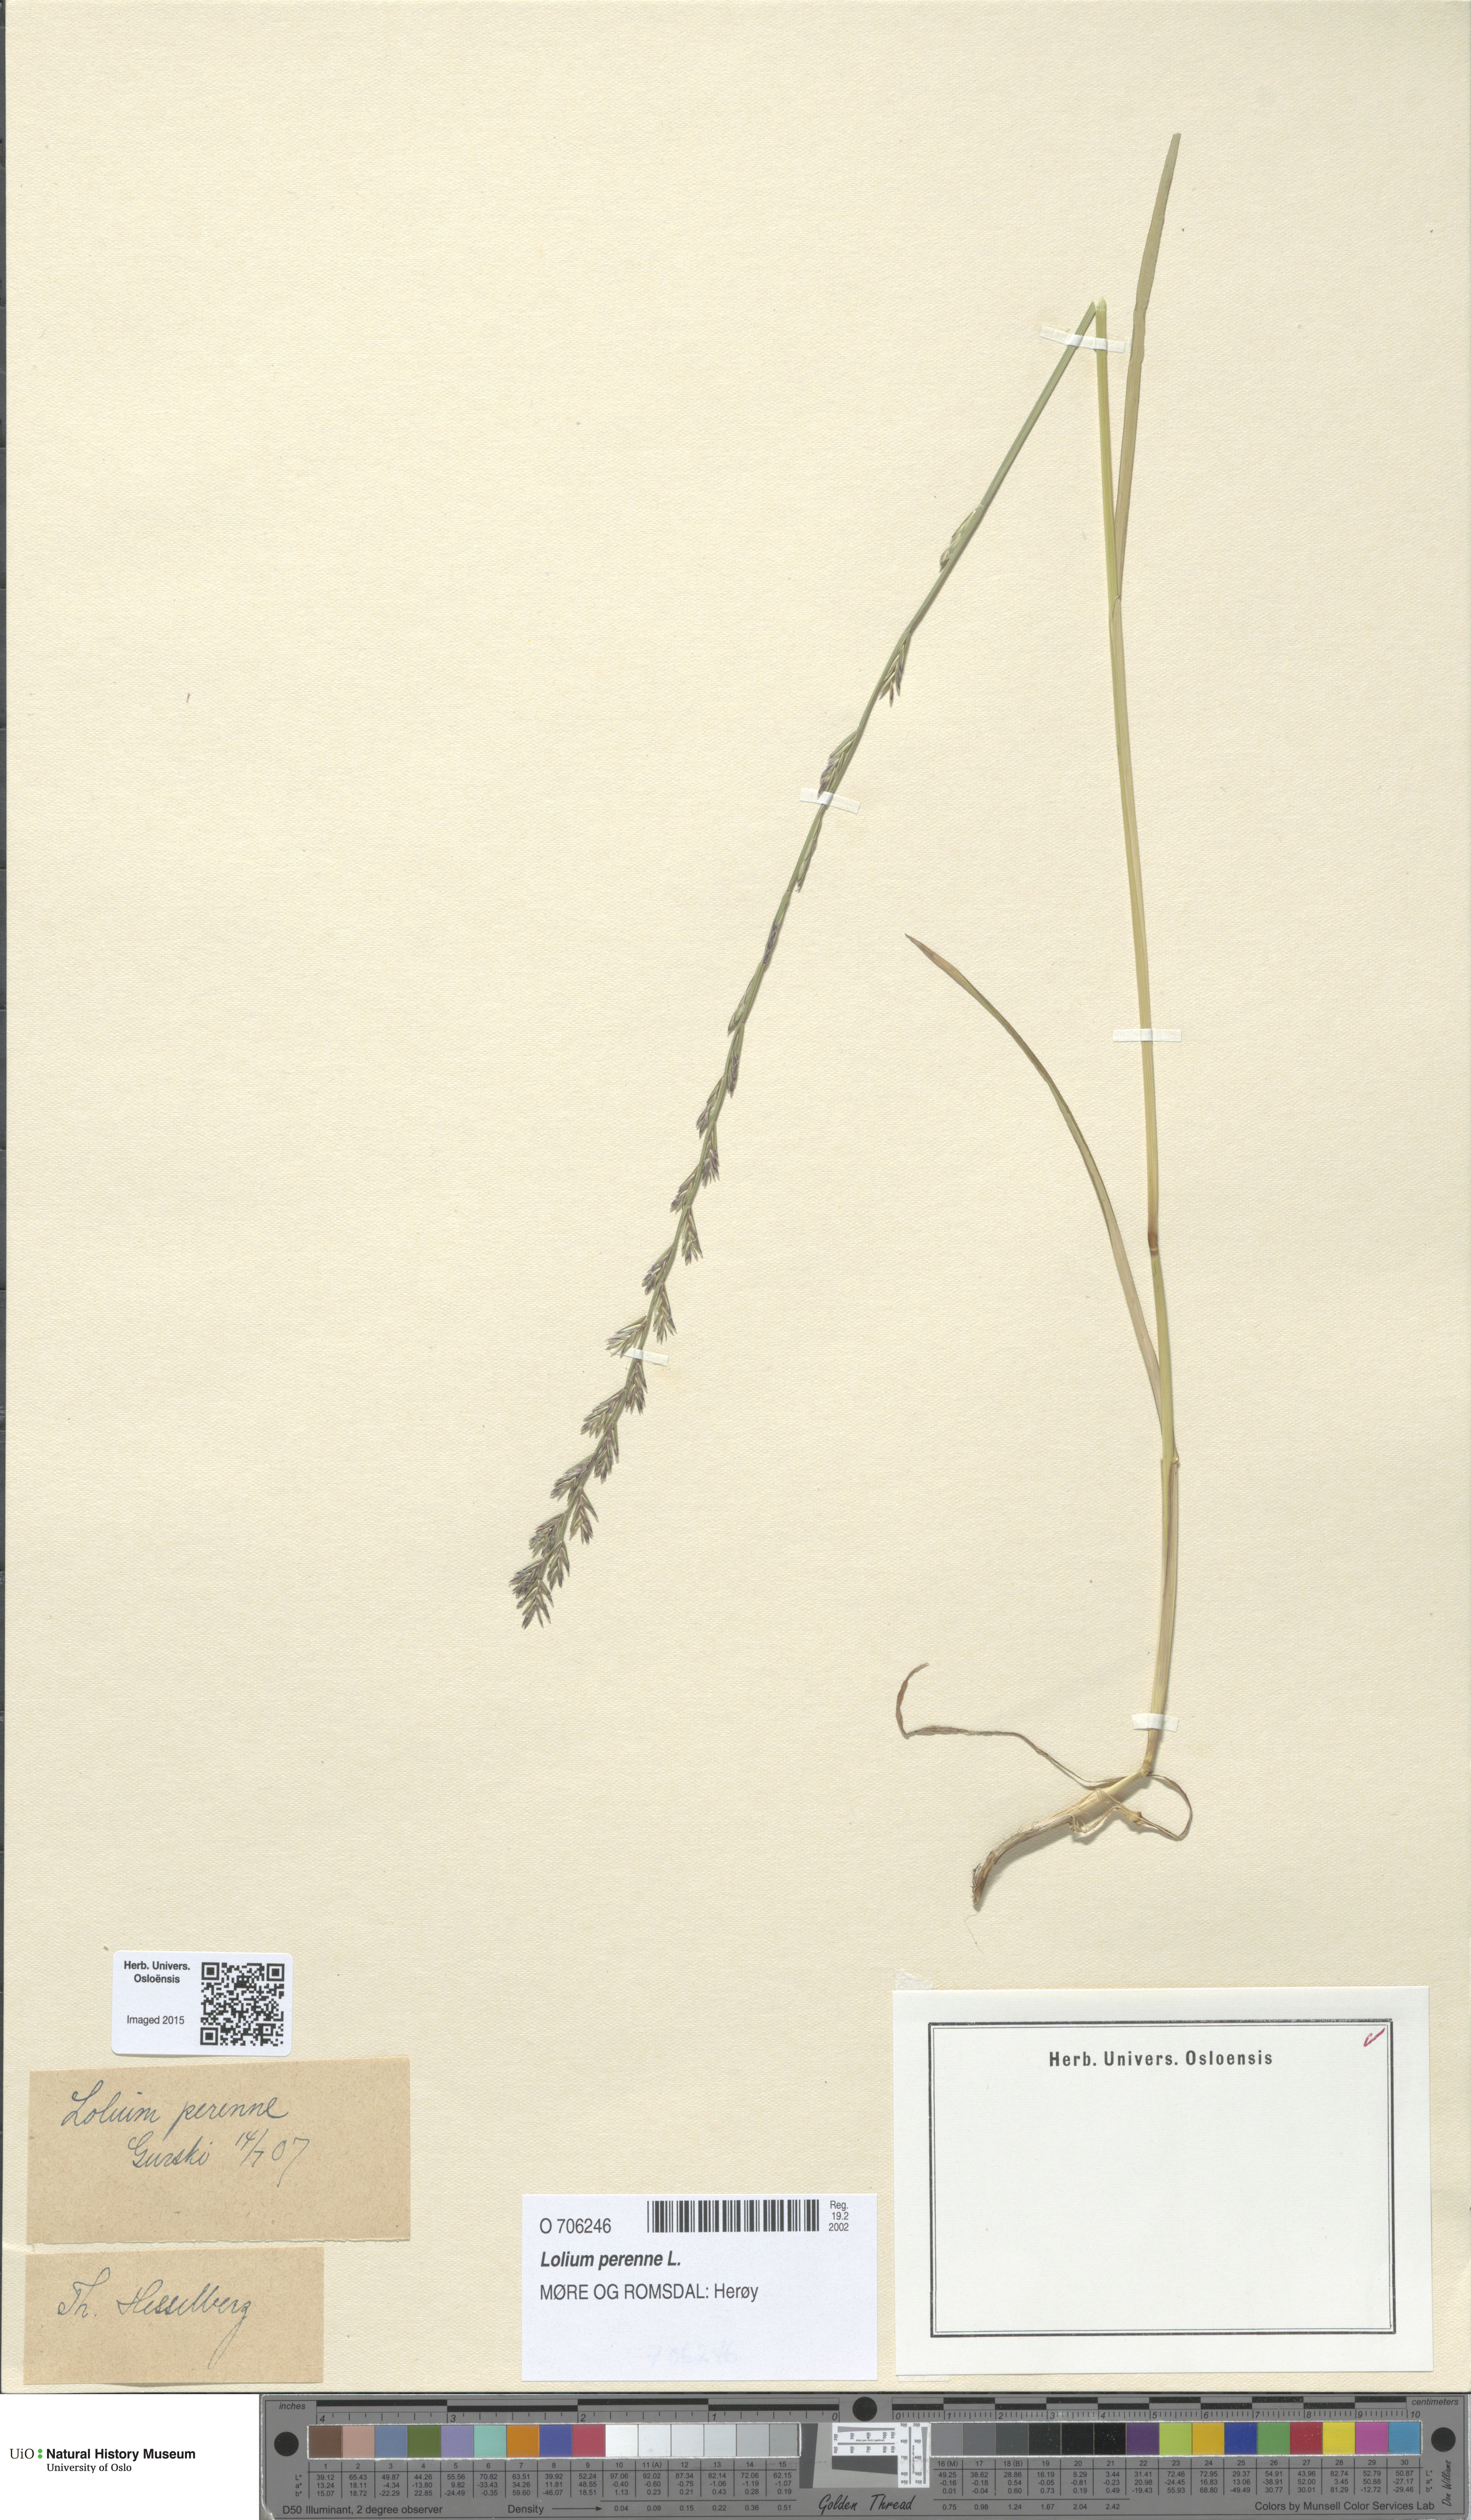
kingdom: Plantae
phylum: Tracheophyta
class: Liliopsida
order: Poales
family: Poaceae
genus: Lolium
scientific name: Lolium perenne
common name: Perennial ryegrass
